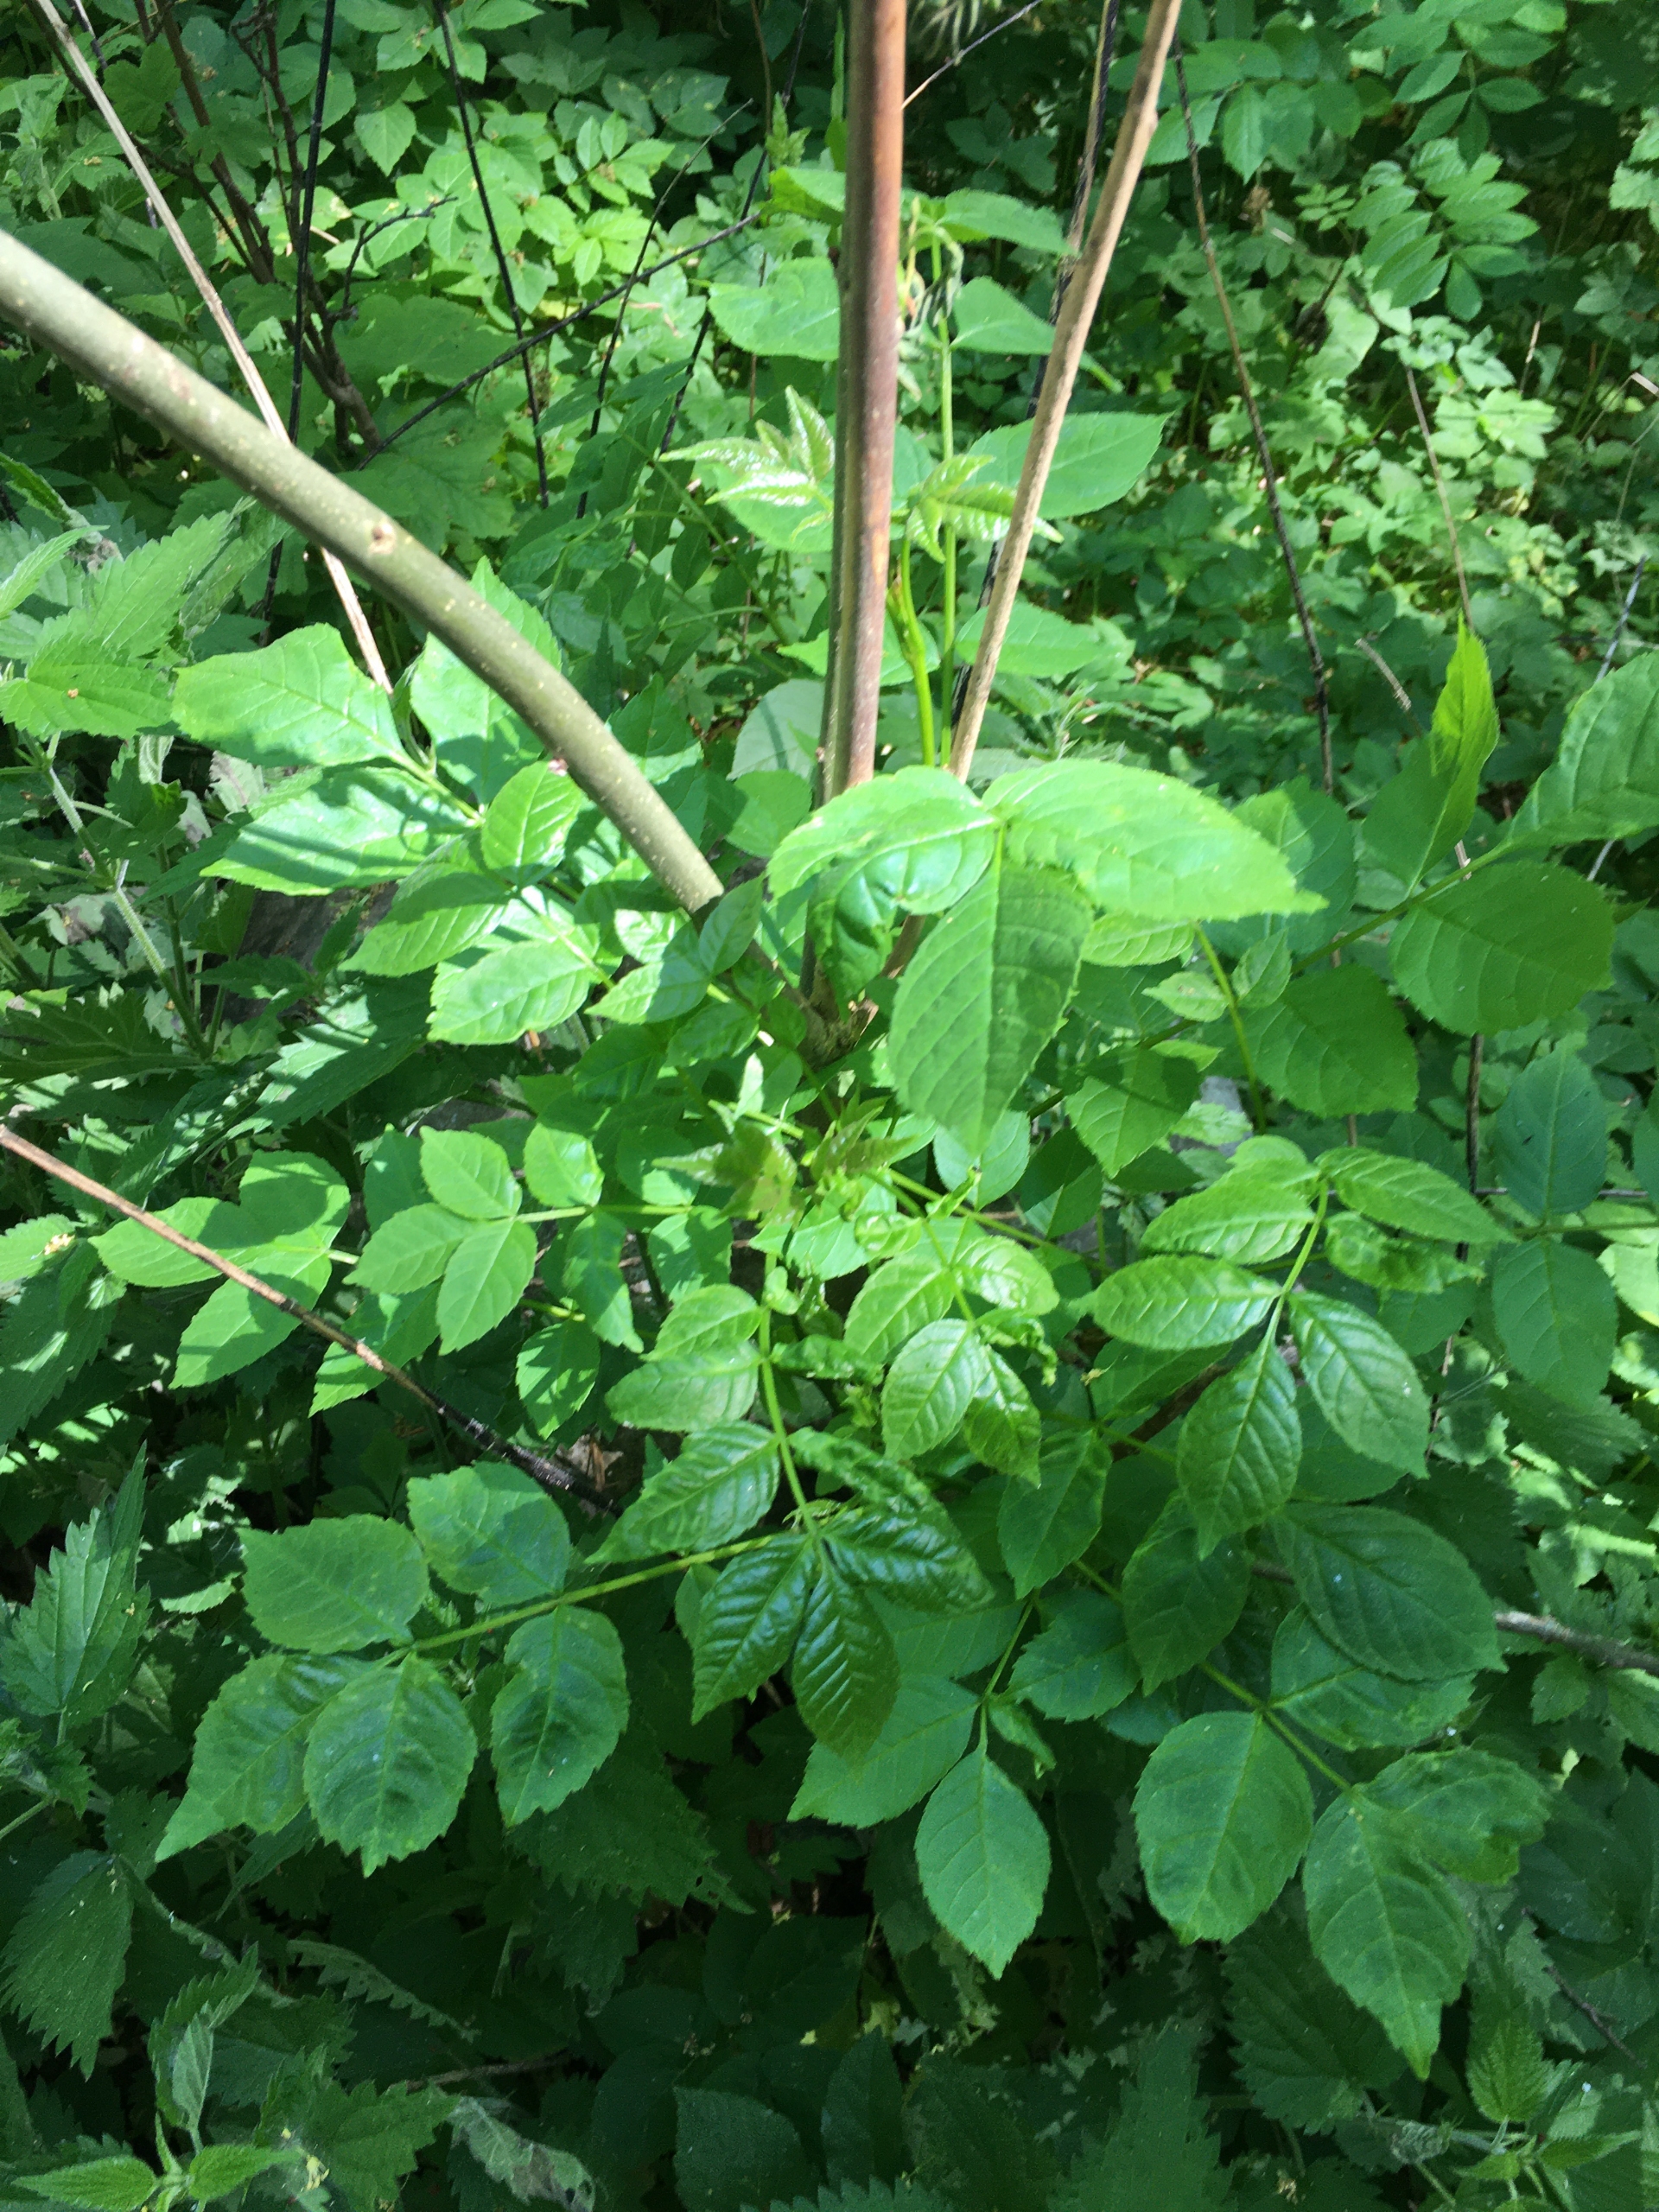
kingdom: Plantae
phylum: Tracheophyta
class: Magnoliopsida
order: Lamiales
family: Oleaceae
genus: Fraxinus
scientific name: Fraxinus excelsior
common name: Ask
